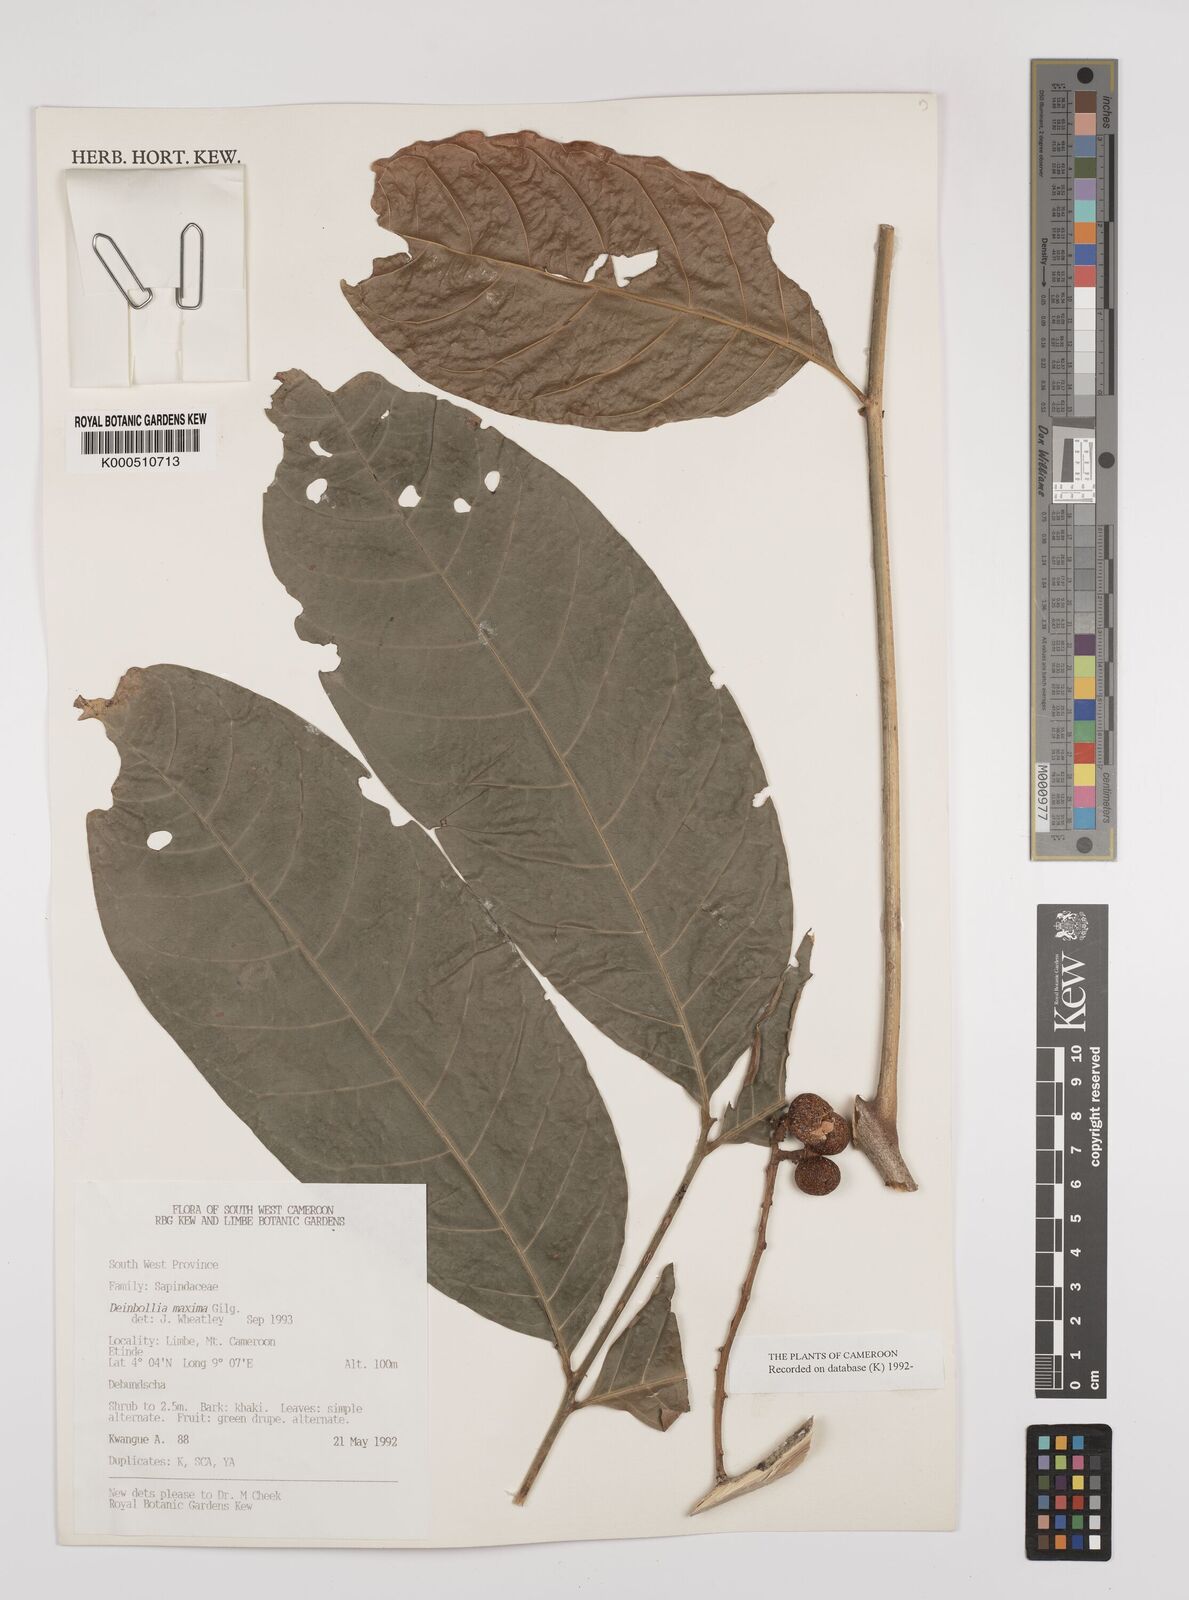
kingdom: Plantae
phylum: Tracheophyta
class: Magnoliopsida
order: Sapindales
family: Sapindaceae
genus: Deinbollia
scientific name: Deinbollia maxima
